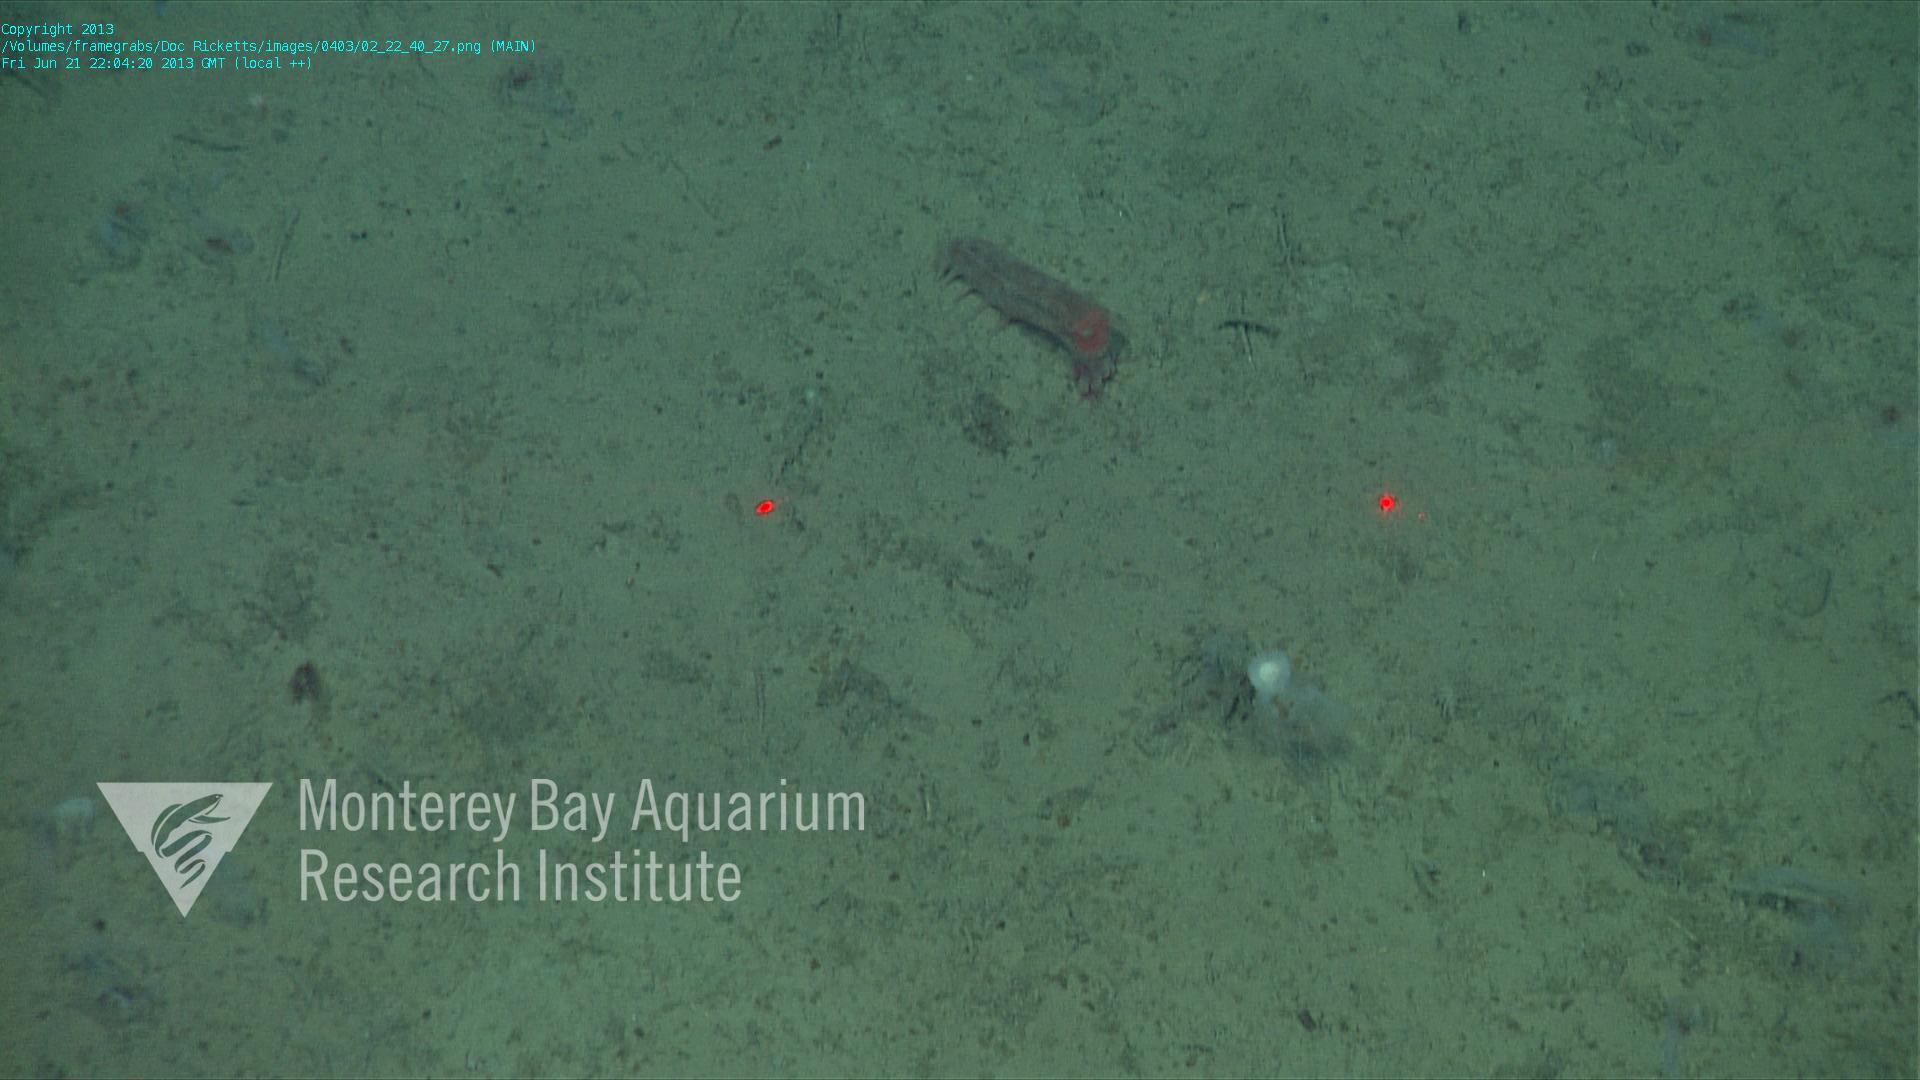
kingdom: Animalia
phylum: Porifera
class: Demospongiae
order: Poecilosclerida
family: Cladorhizidae
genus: Cladorhiza
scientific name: Cladorhiza
